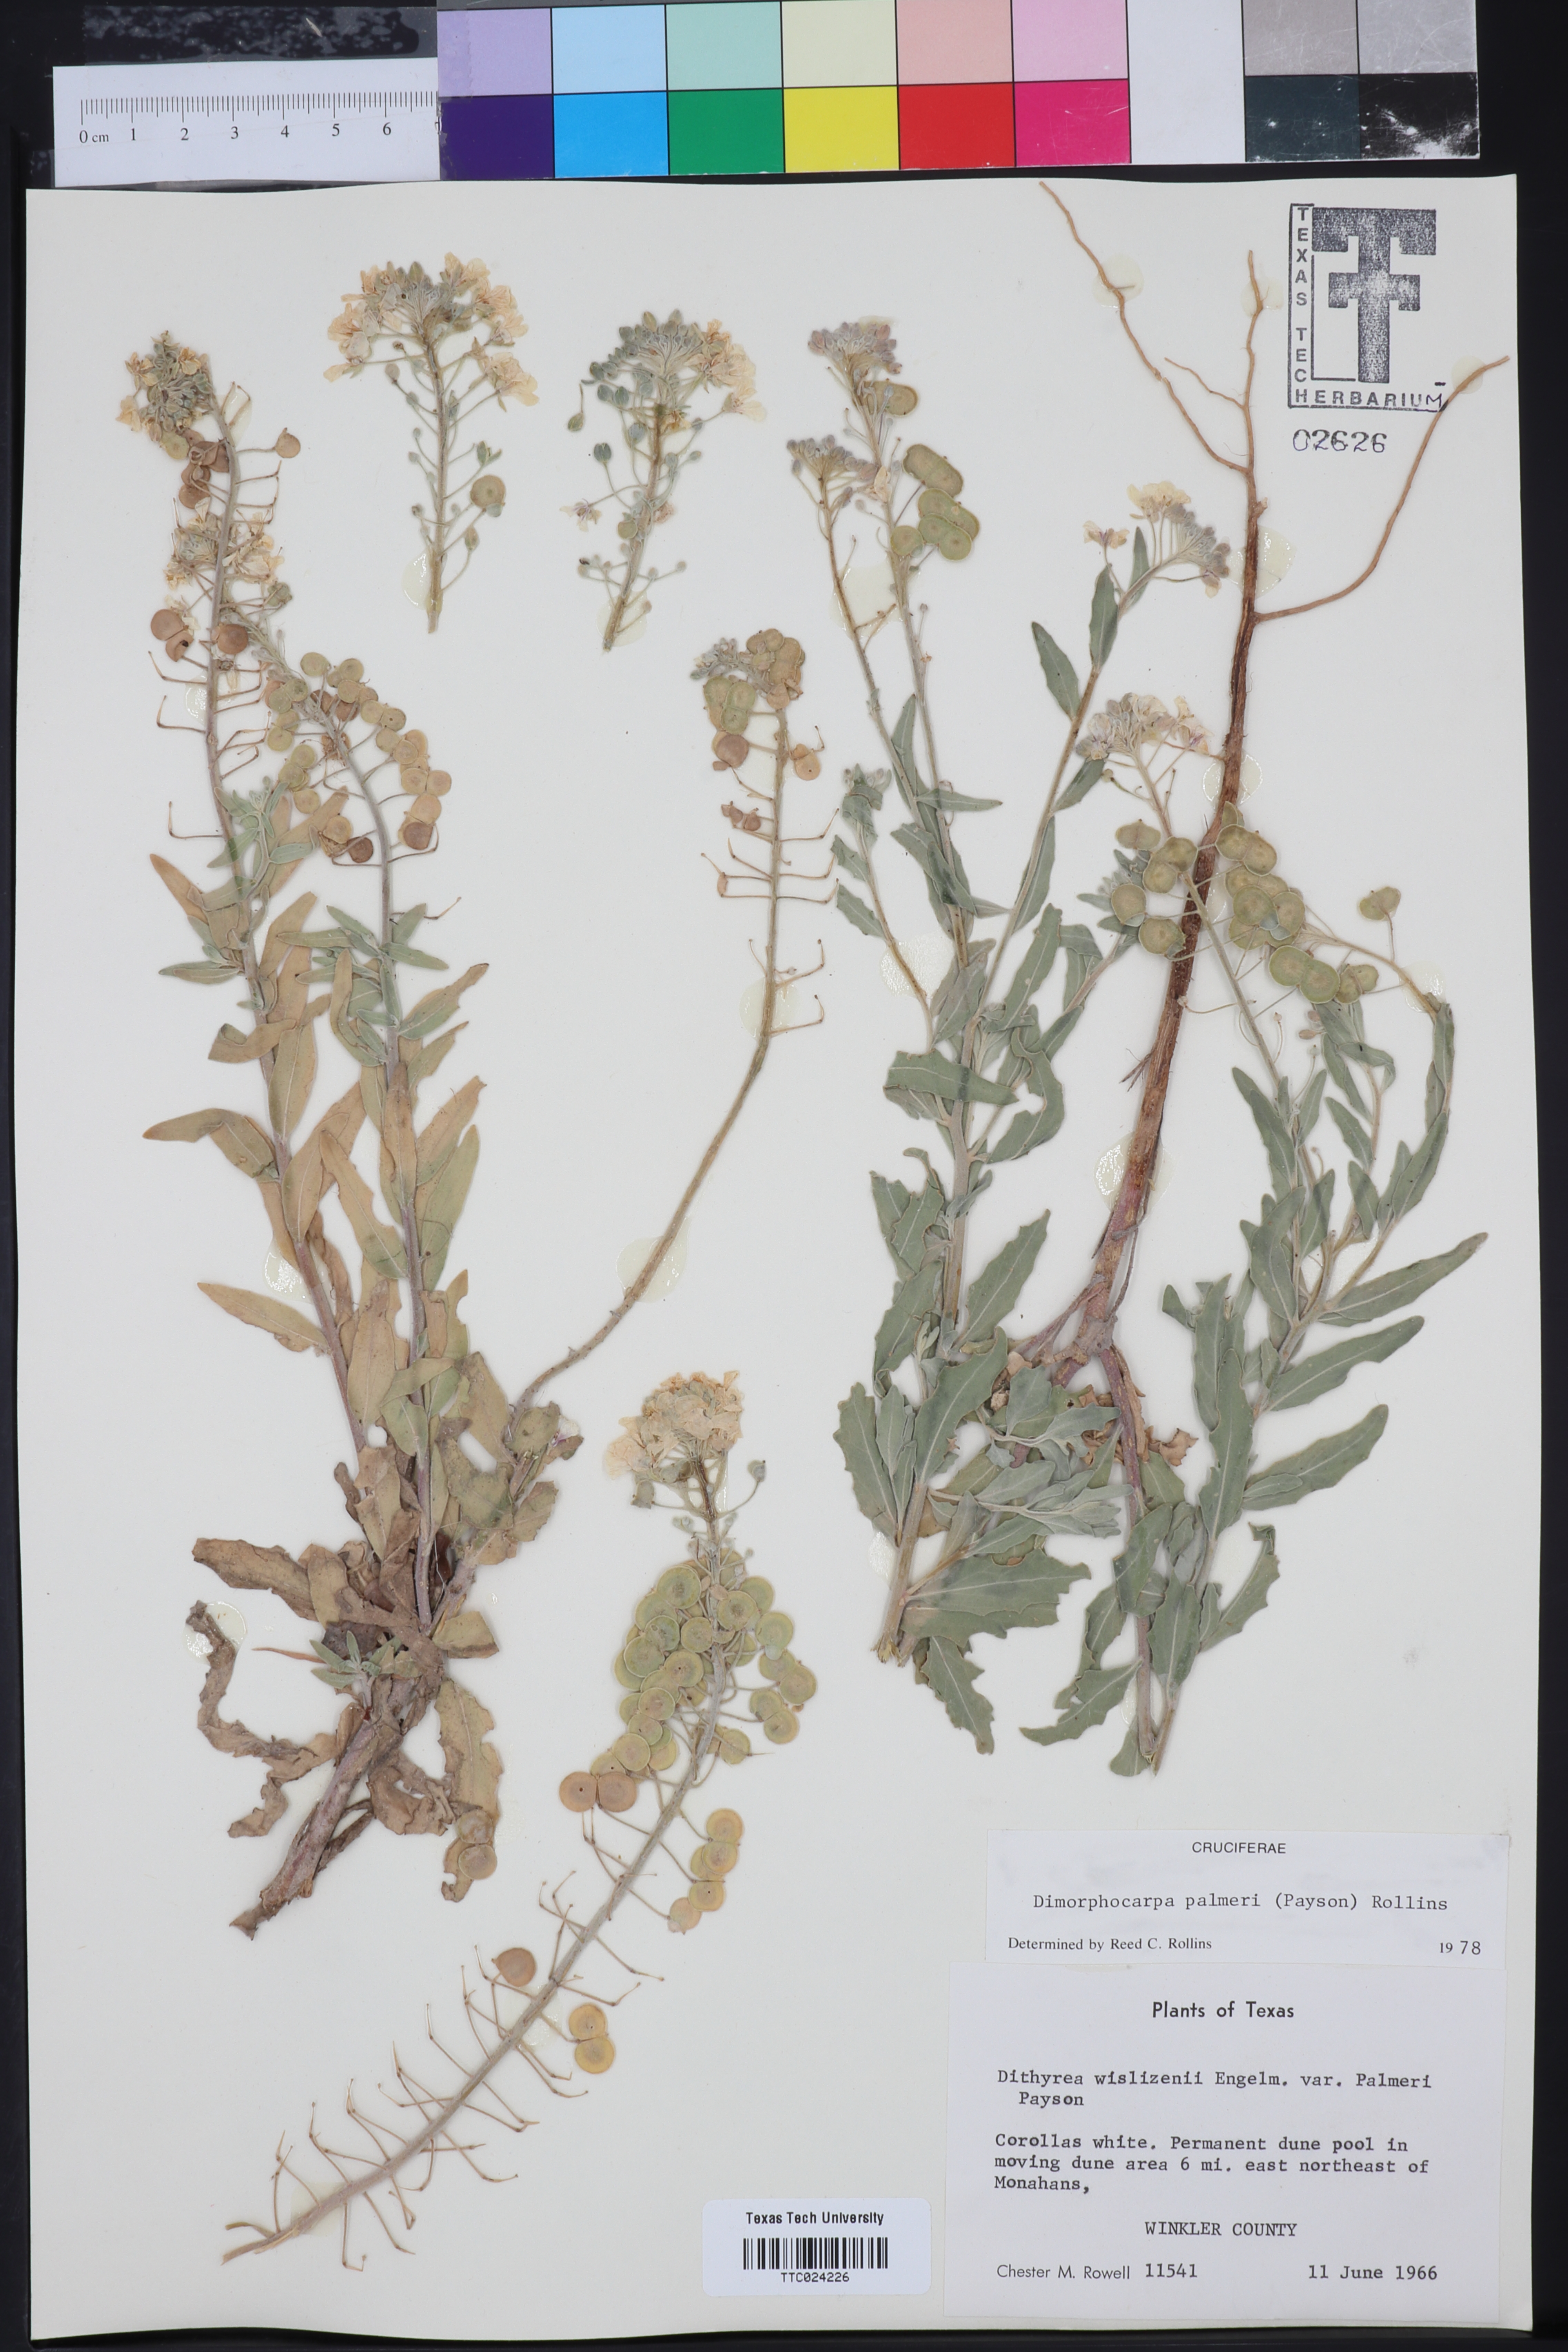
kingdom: Plantae
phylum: Tracheophyta
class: Magnoliopsida
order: Brassicales
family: Brassicaceae
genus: Dimorphocarpa
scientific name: Dimorphocarpa candicans
